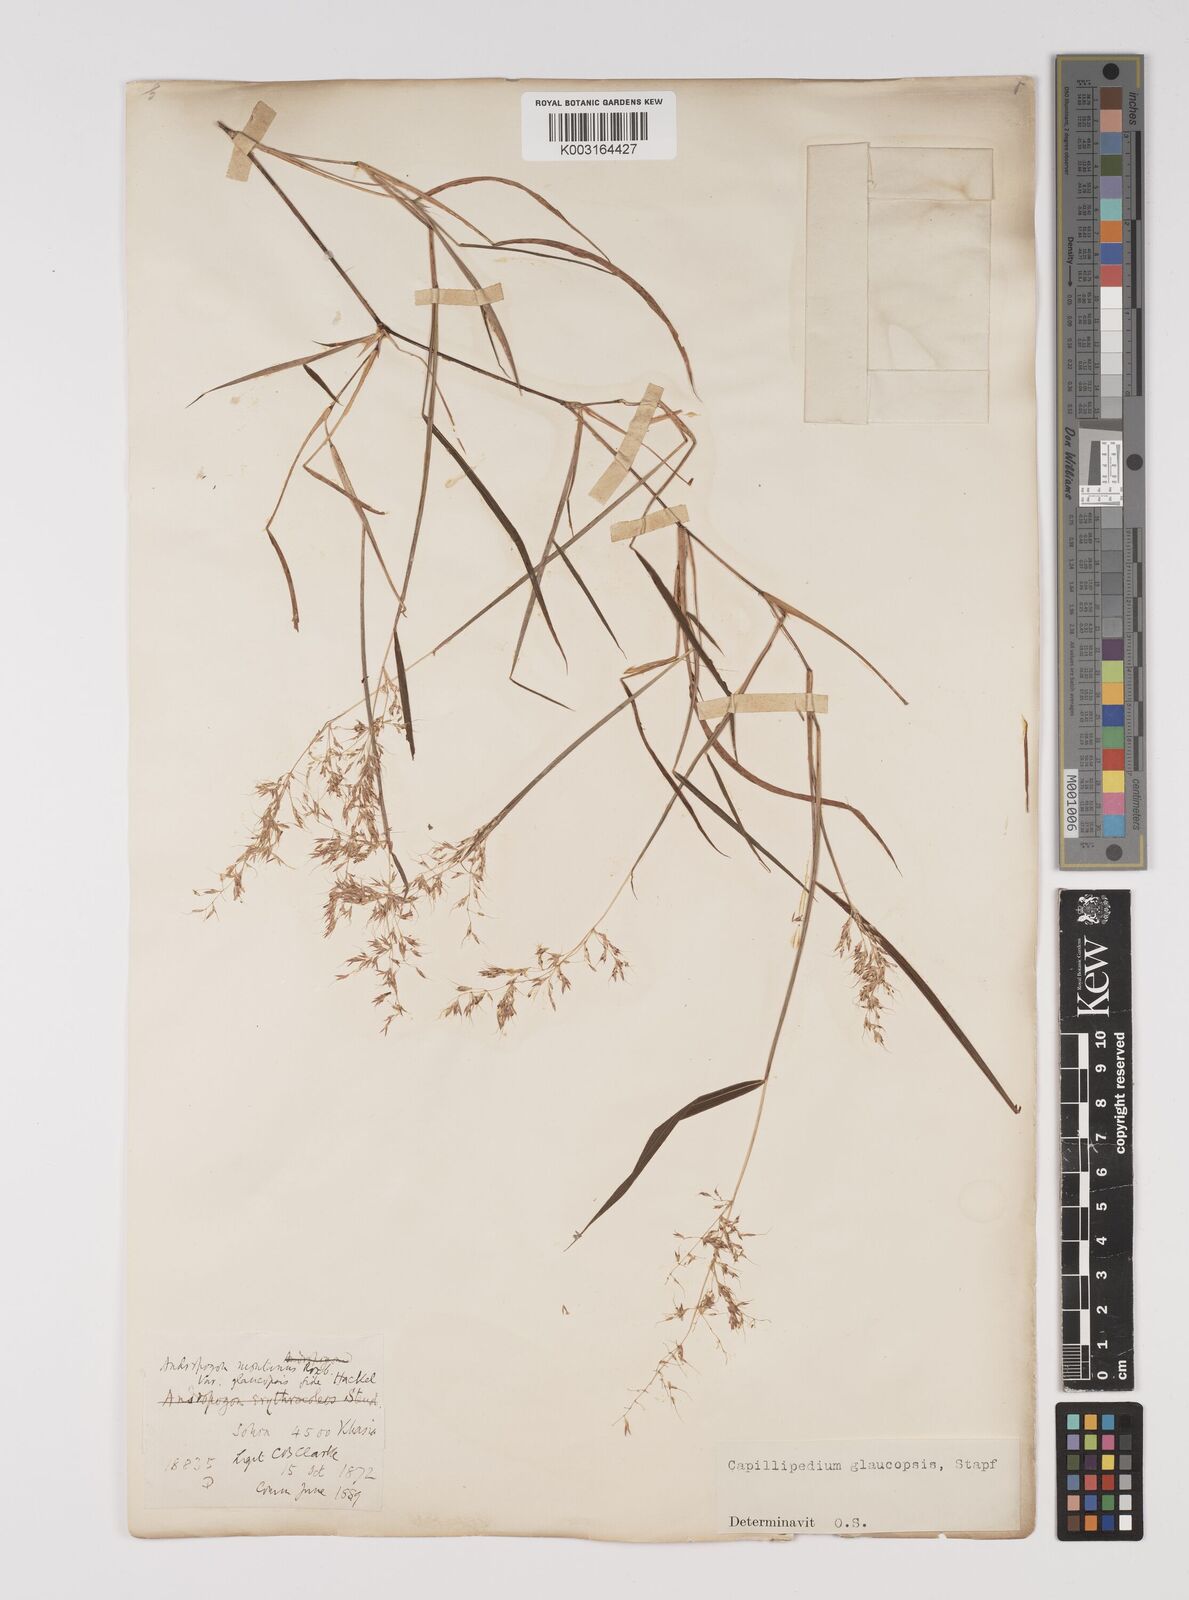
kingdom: Plantae
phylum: Tracheophyta
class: Liliopsida
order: Poales
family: Poaceae
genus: Capillipedium
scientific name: Capillipedium assimile
